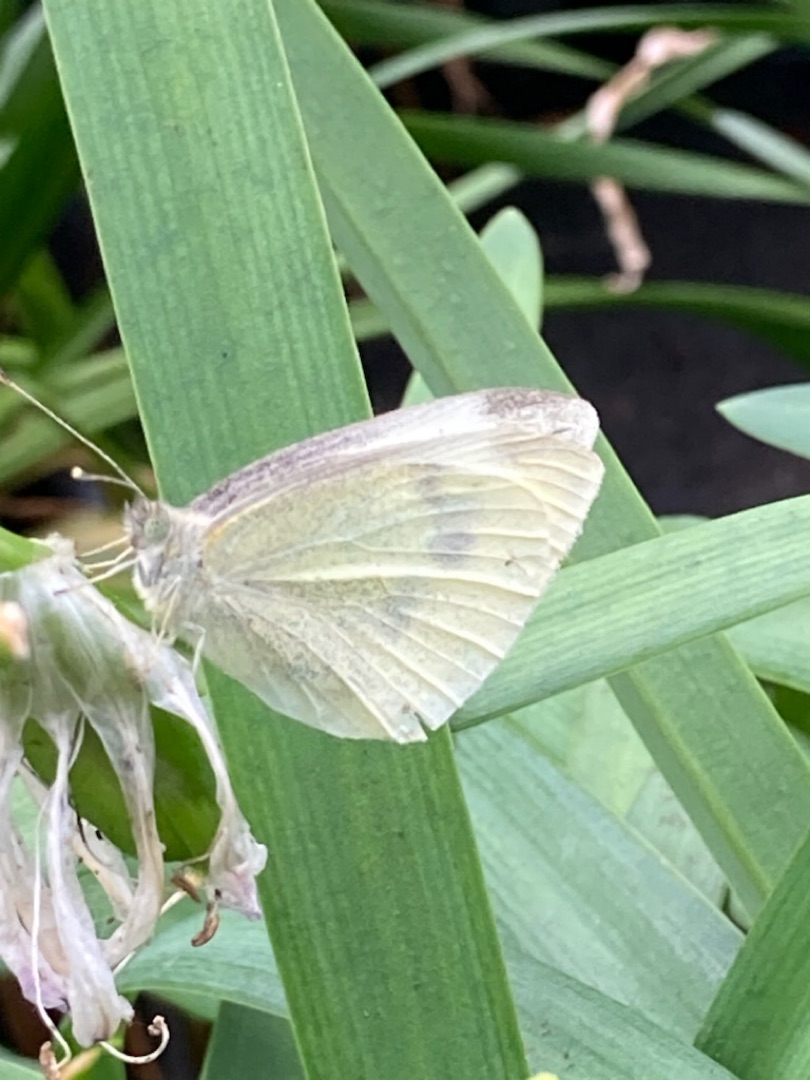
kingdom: Animalia
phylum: Arthropoda
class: Insecta
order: Lepidoptera
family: Pieridae
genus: Pieris
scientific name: Pieris rapae
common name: Lille kålsommerfugl
